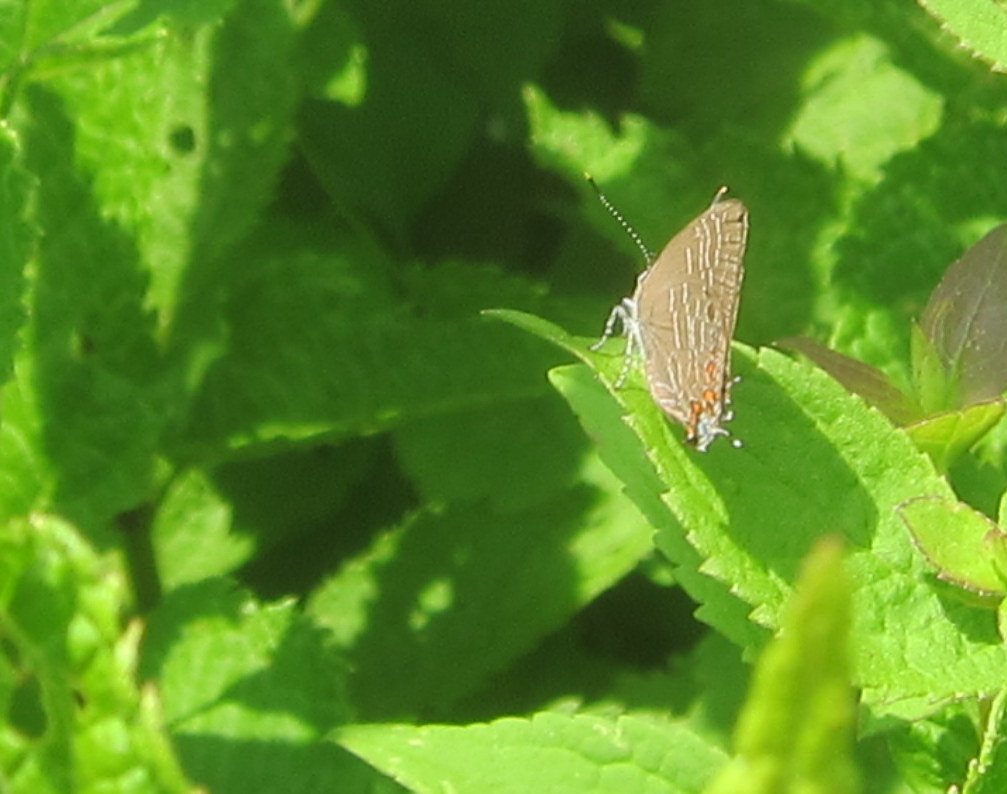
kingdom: Animalia
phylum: Arthropoda
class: Insecta
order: Lepidoptera
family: Lycaenidae
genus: Satyrium
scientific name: Satyrium liparops
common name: Striped Hairstreak
